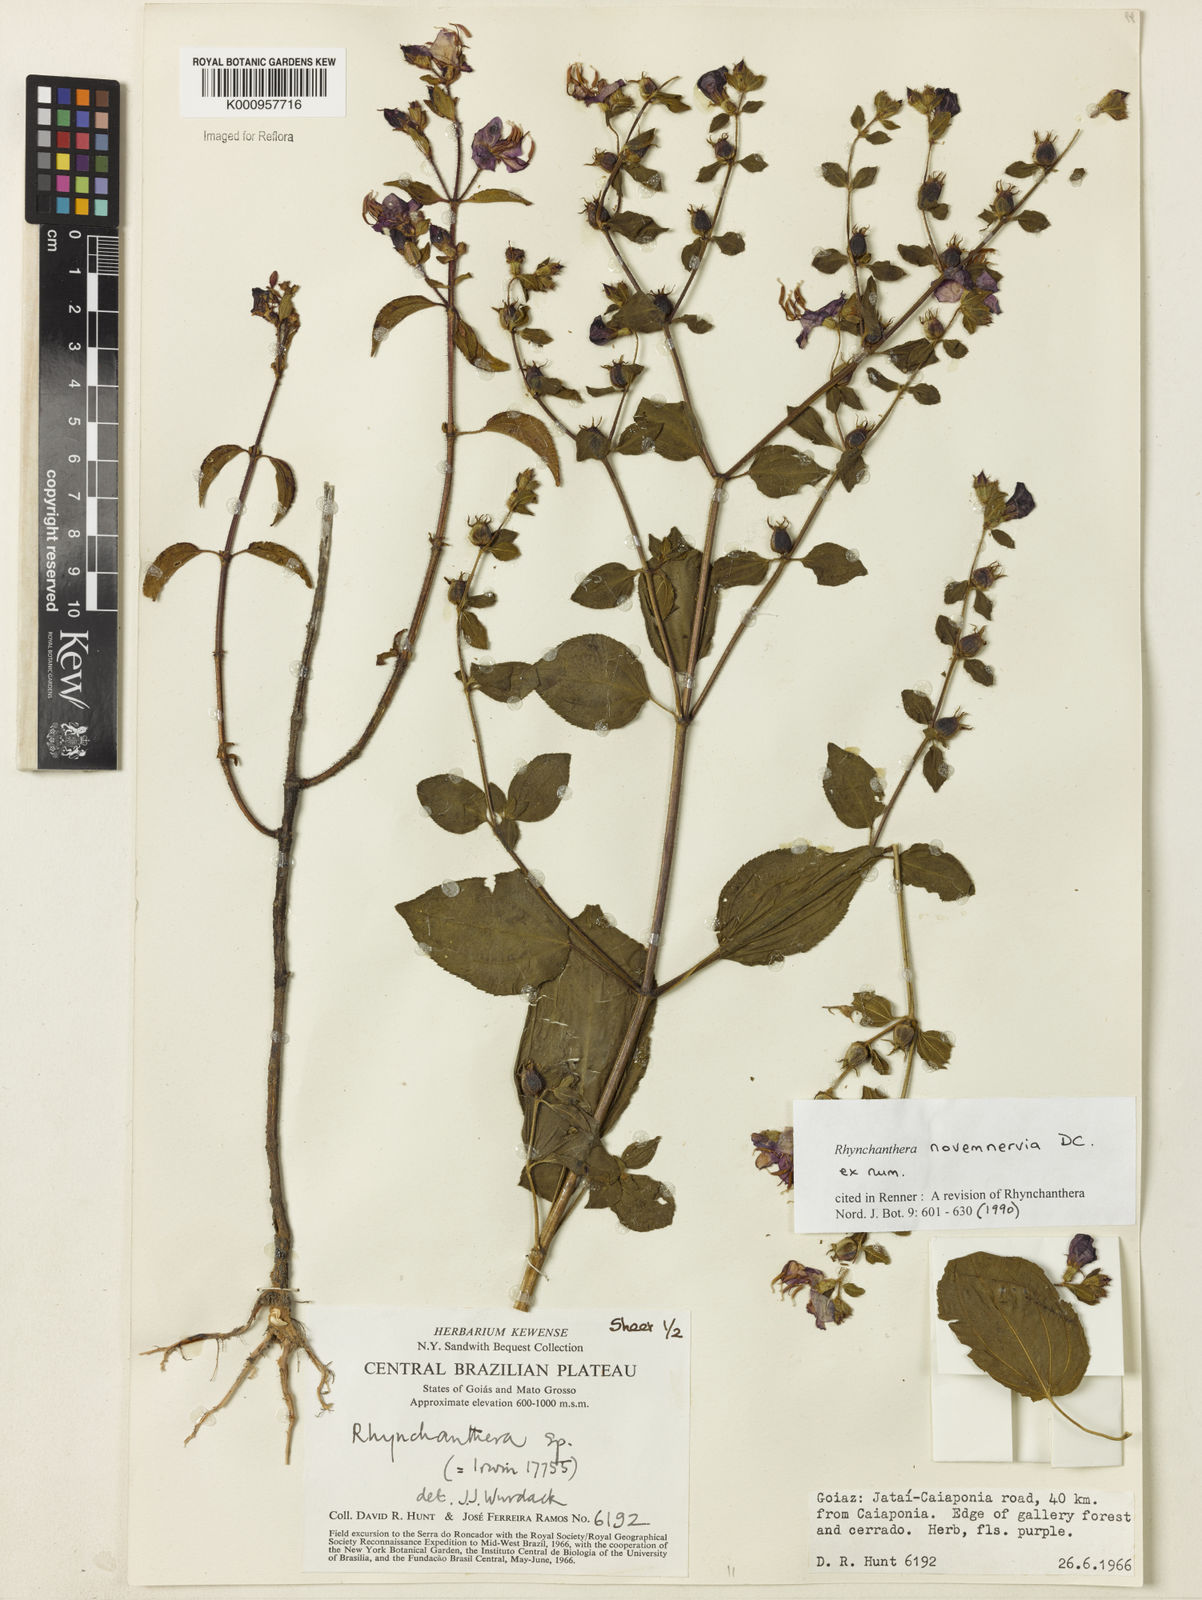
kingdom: Plantae
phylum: Tracheophyta
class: Magnoliopsida
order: Myrtales
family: Melastomataceae
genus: Rhynchanthera
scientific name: Rhynchanthera novemnervia
